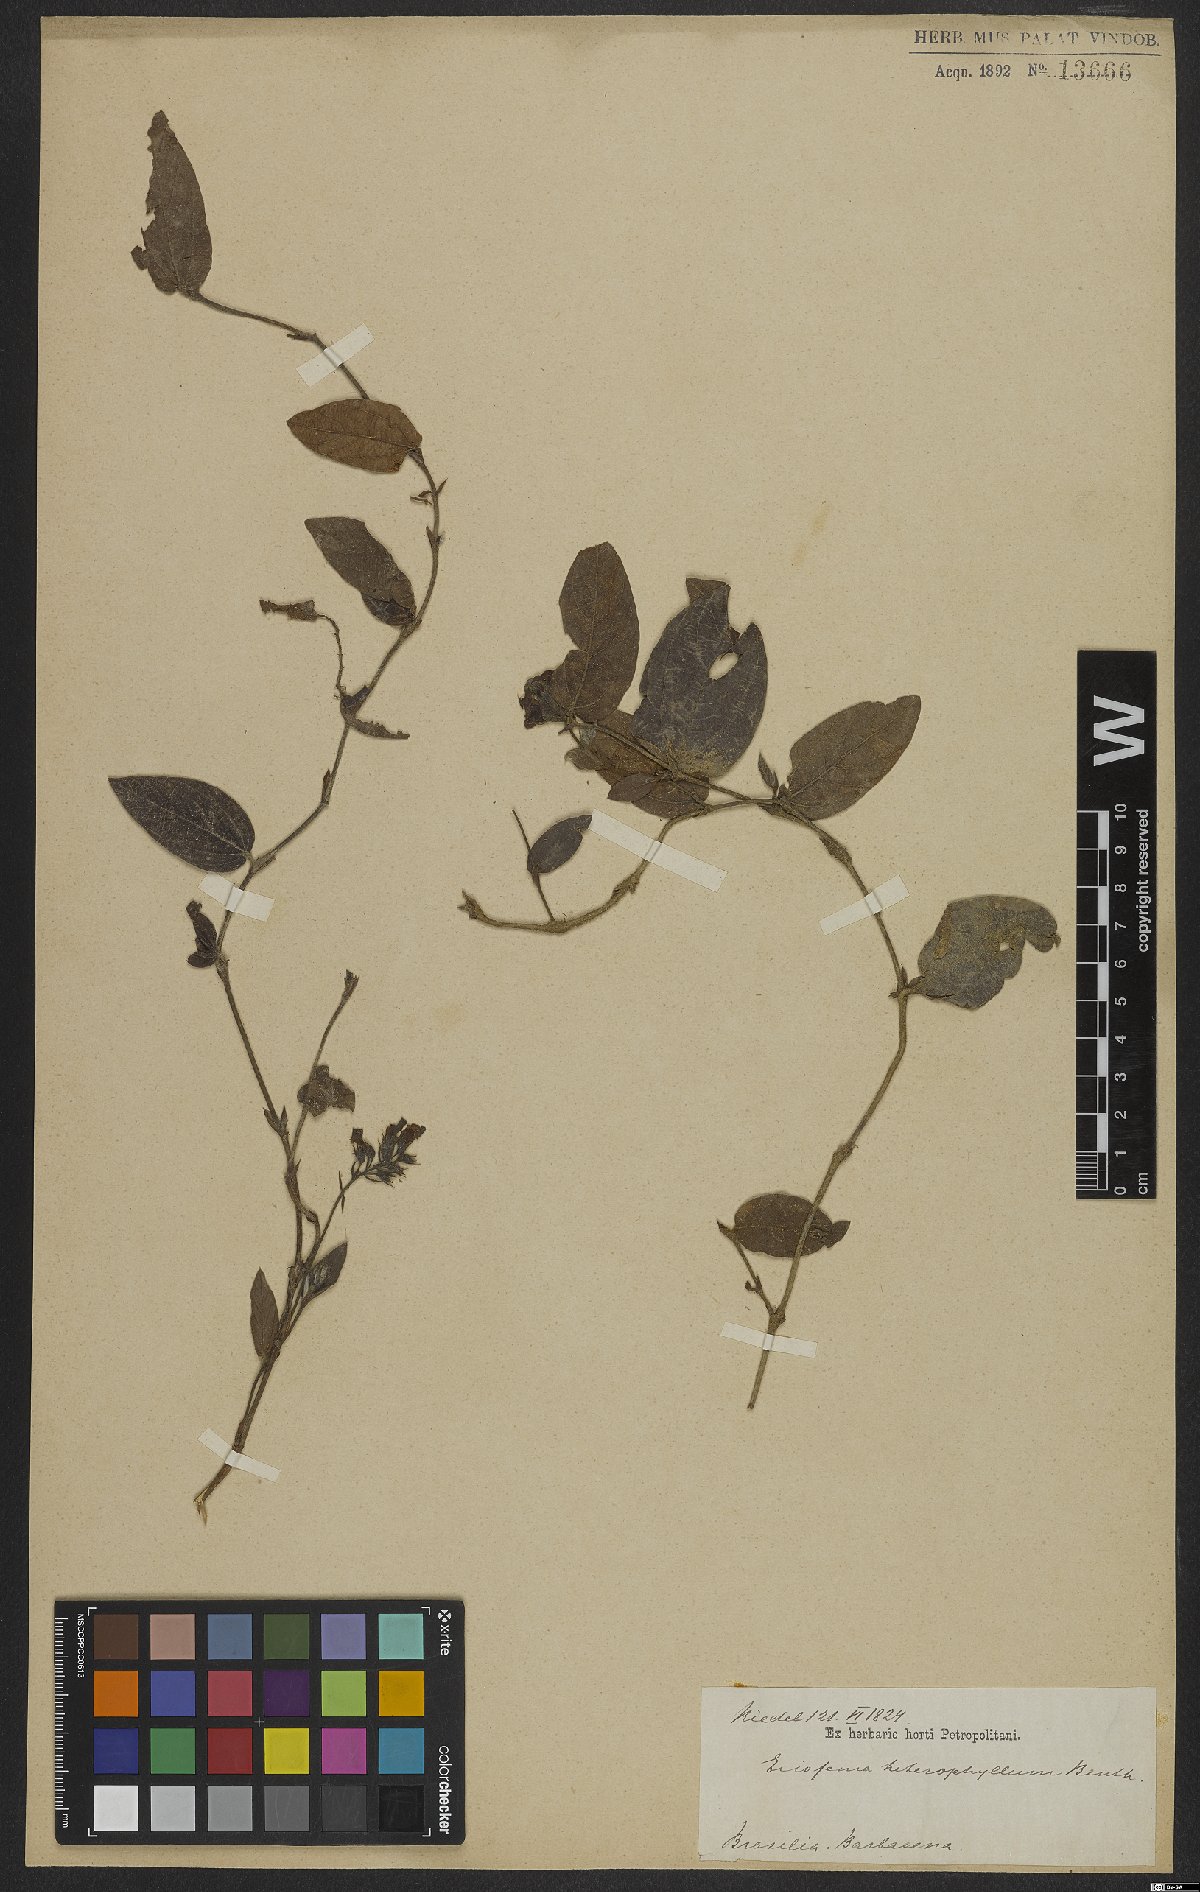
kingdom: Plantae
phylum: Tracheophyta
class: Magnoliopsida
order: Fabales
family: Fabaceae
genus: Eriosema
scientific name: Eriosema heterophyllum
